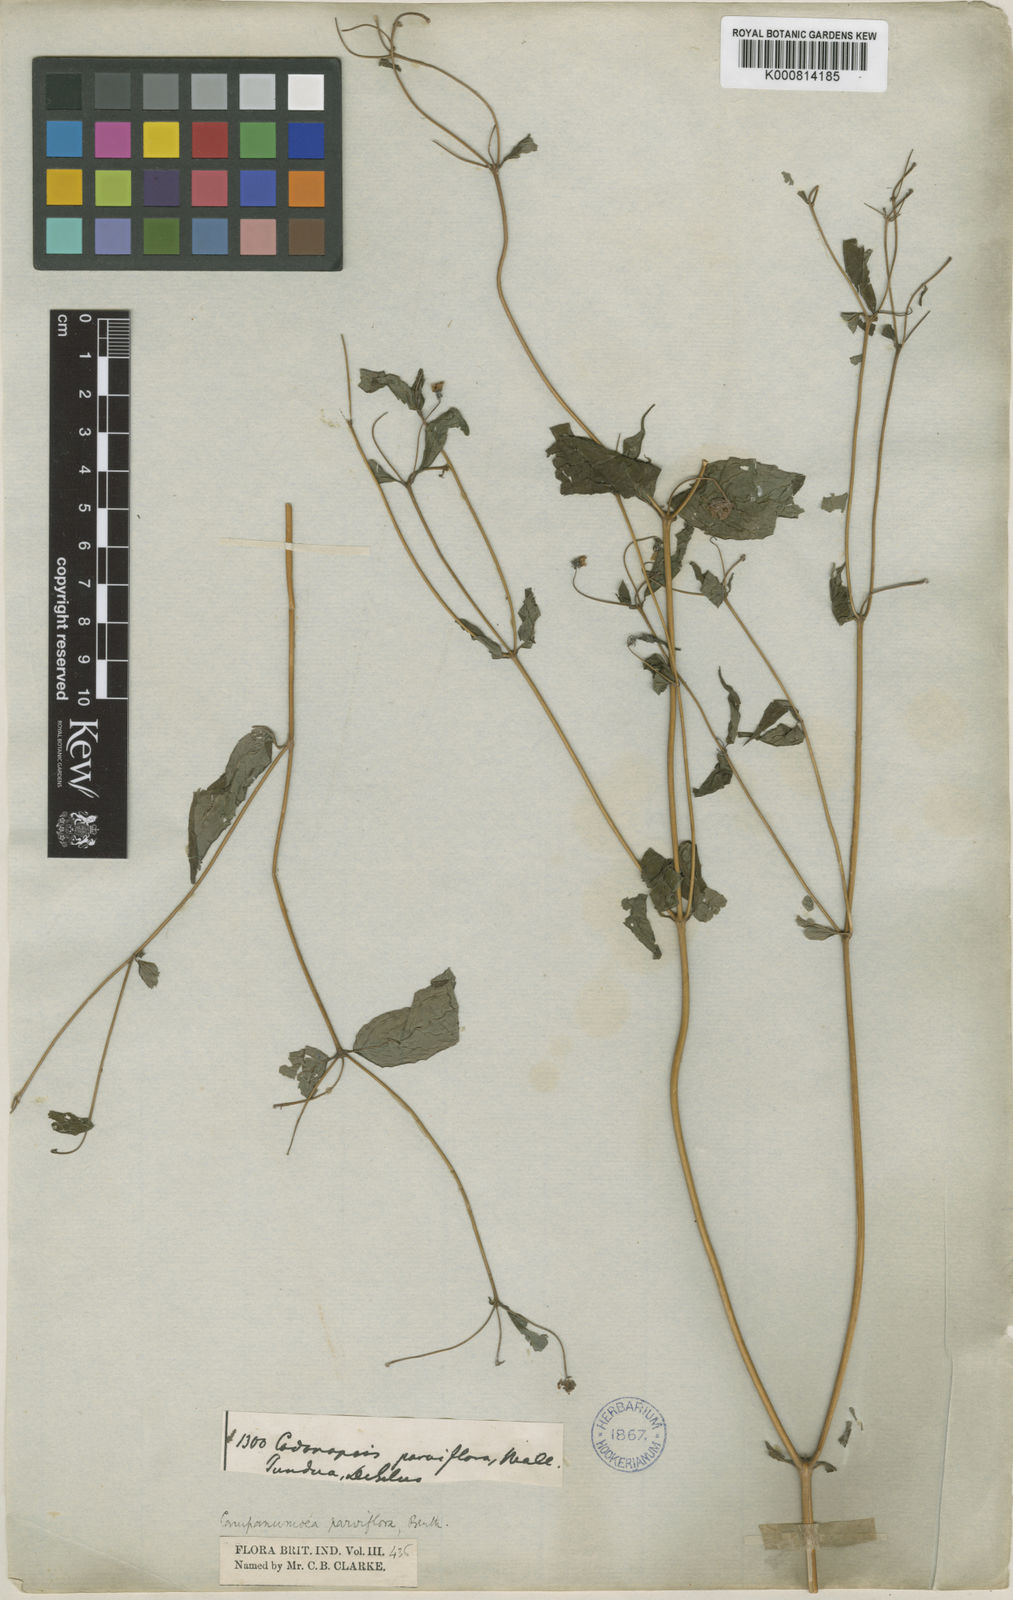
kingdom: Plantae
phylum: Tracheophyta
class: Magnoliopsida
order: Asterales
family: Campanulaceae
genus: Cyclocodon
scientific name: Cyclocodon parviflorus
